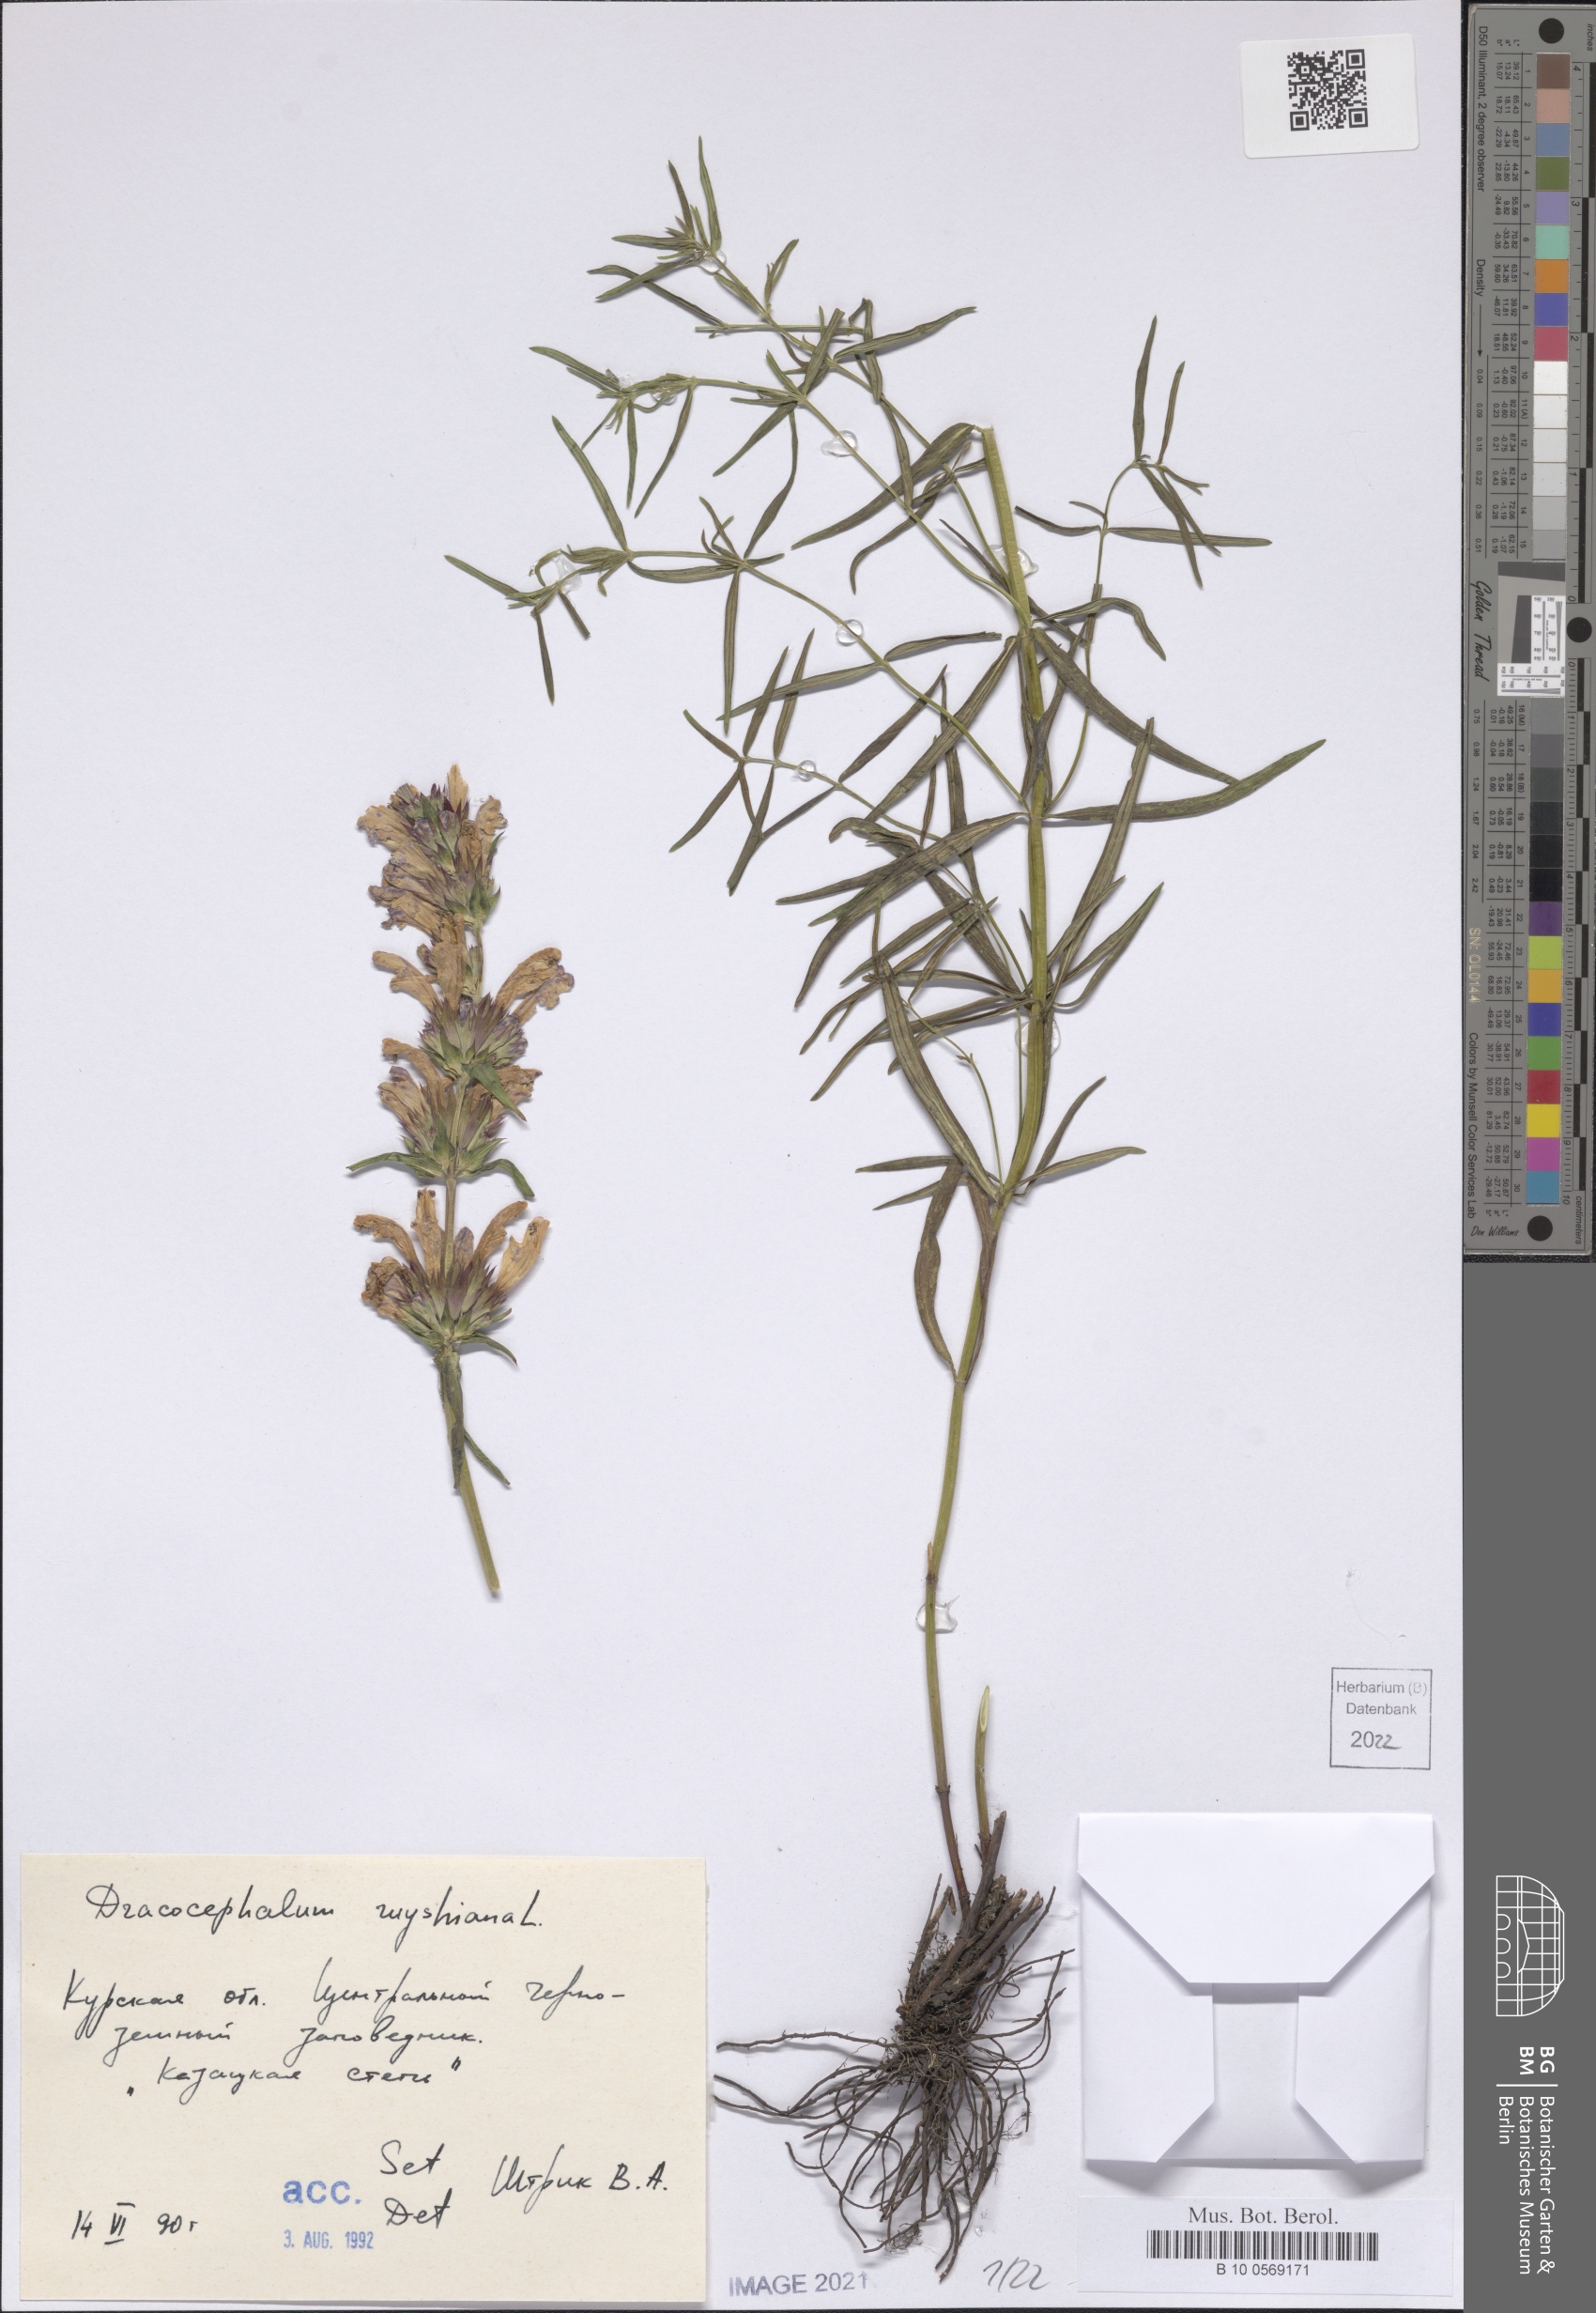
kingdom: Plantae
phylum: Tracheophyta
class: Magnoliopsida
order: Lamiales
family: Lamiaceae
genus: Dracocephalum
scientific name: Dracocephalum ruyschiana
